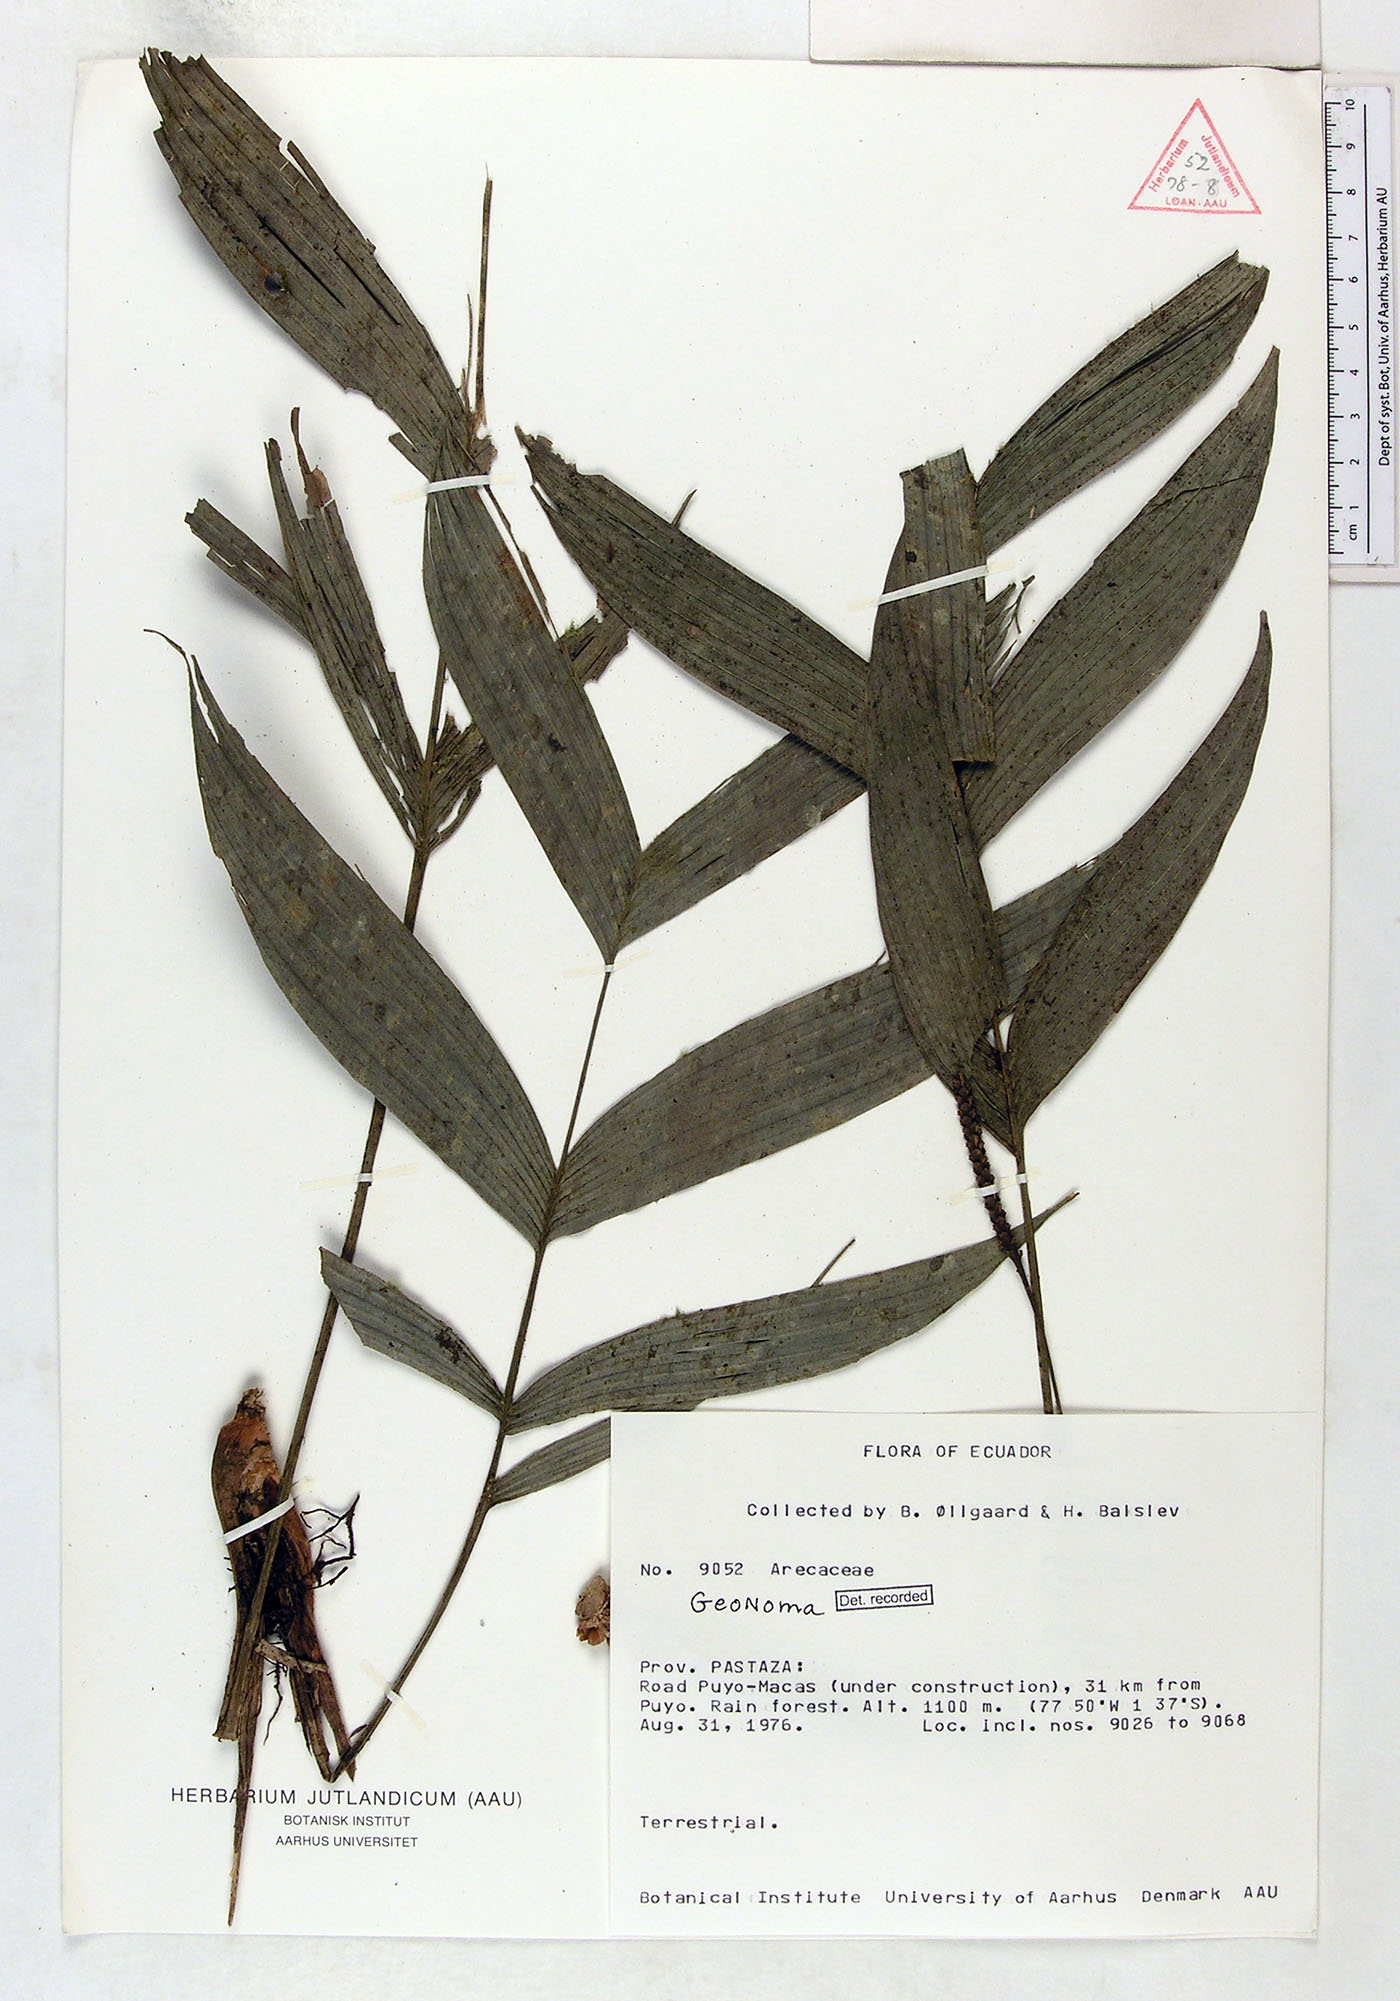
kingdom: Plantae
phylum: Tracheophyta
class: Liliopsida
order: Arecales
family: Arecaceae
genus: Geonoma
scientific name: Geonoma
